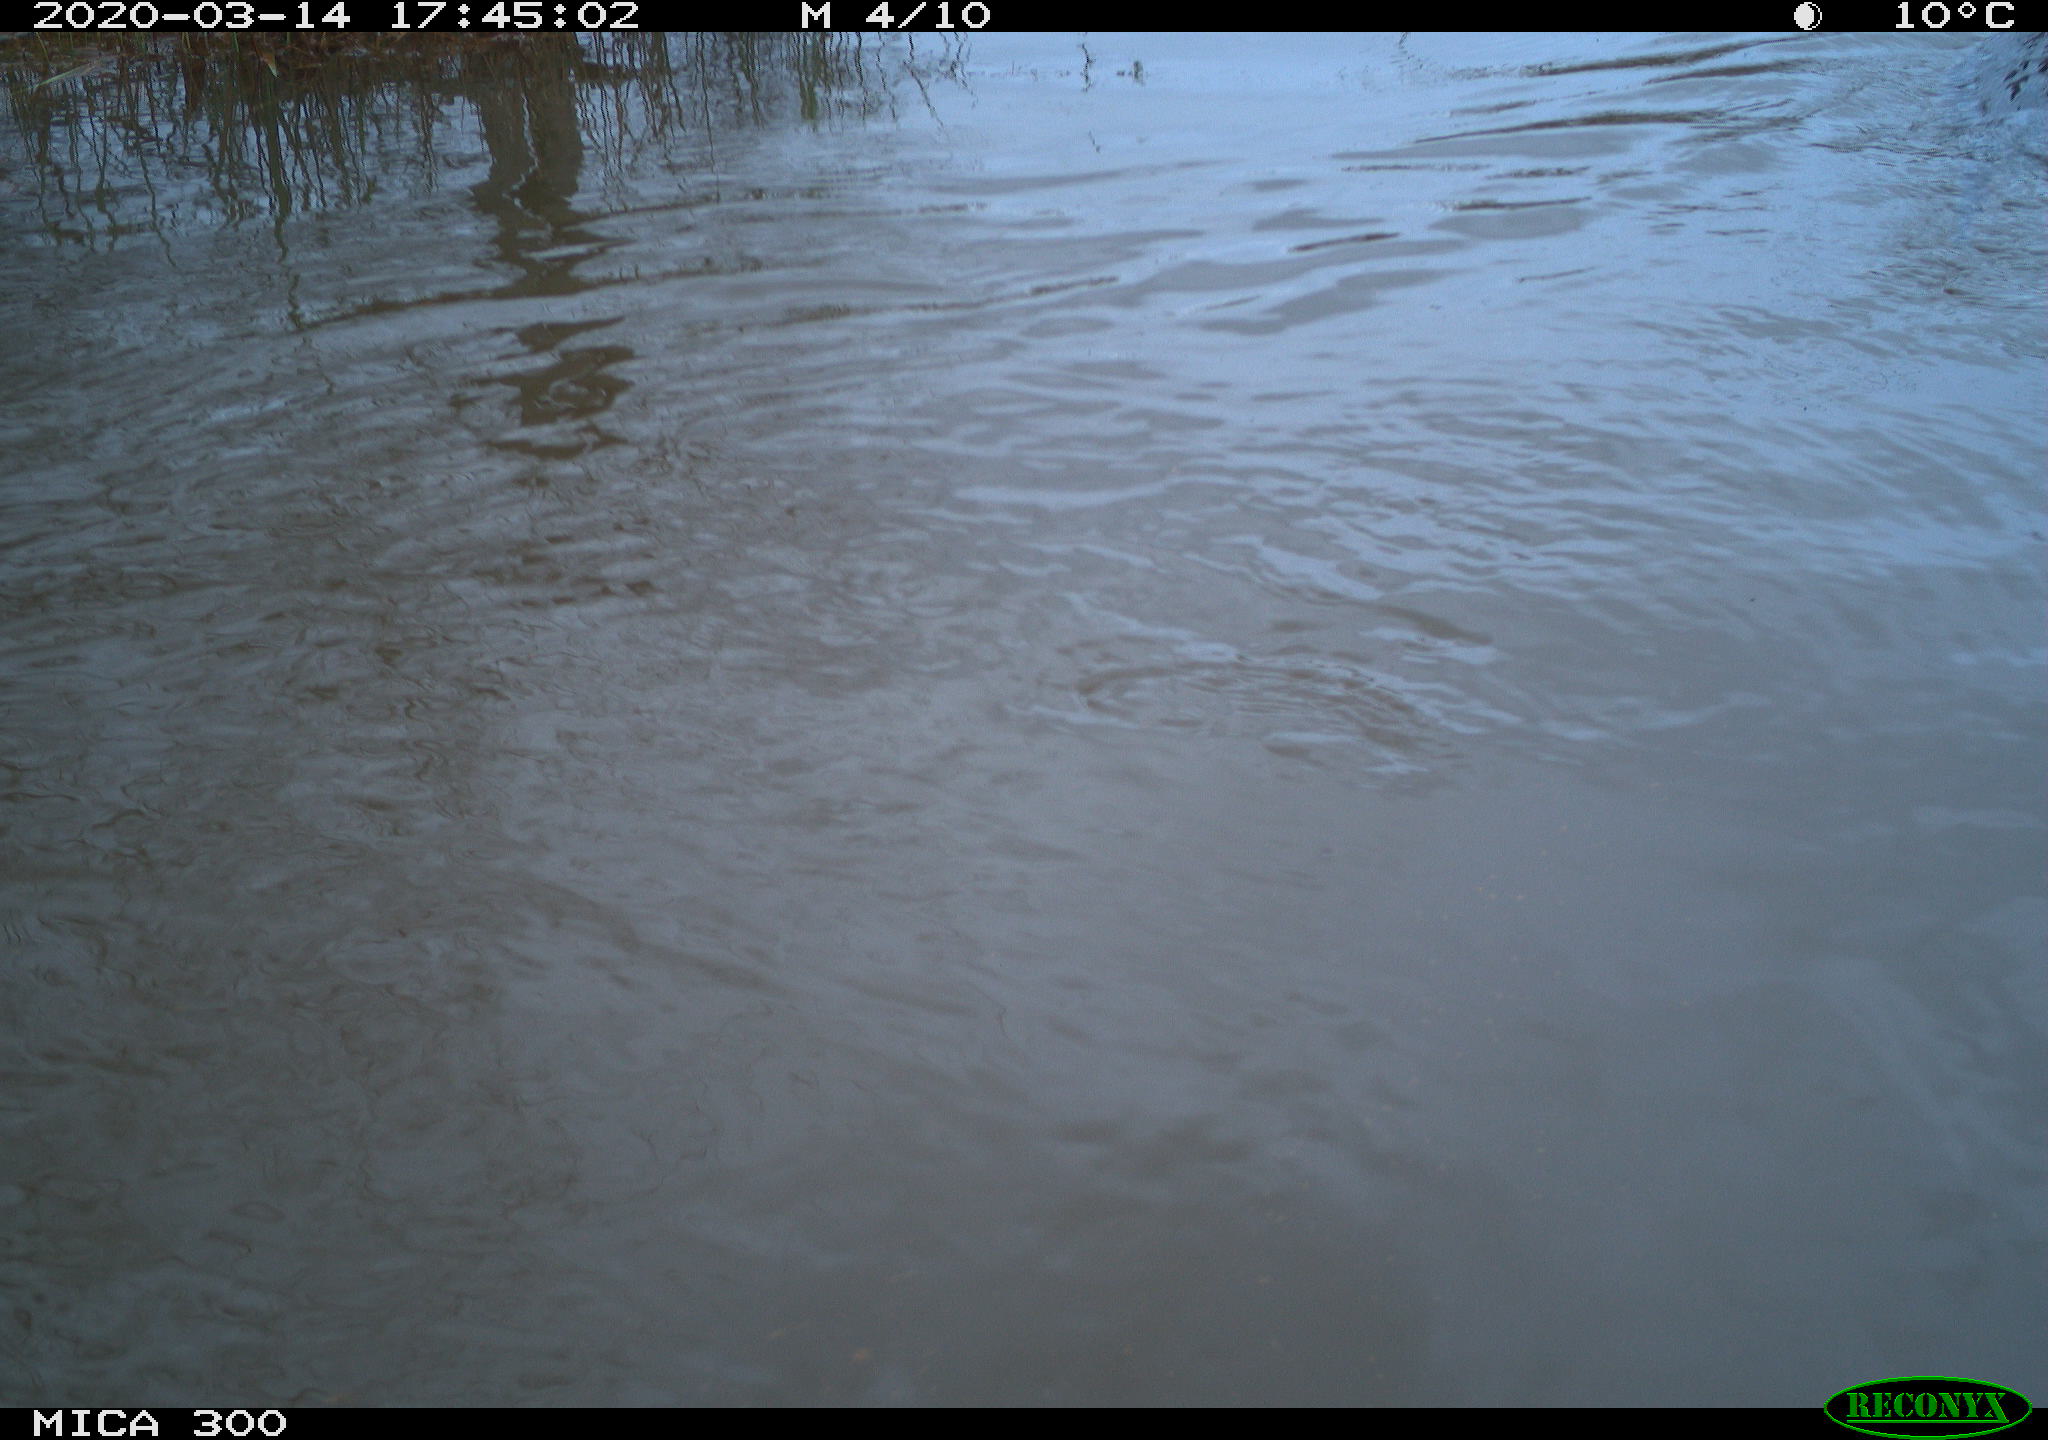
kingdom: Animalia
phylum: Chordata
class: Mammalia
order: Rodentia
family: Myocastoridae
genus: Myocastor
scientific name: Myocastor coypus
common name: Coypu
